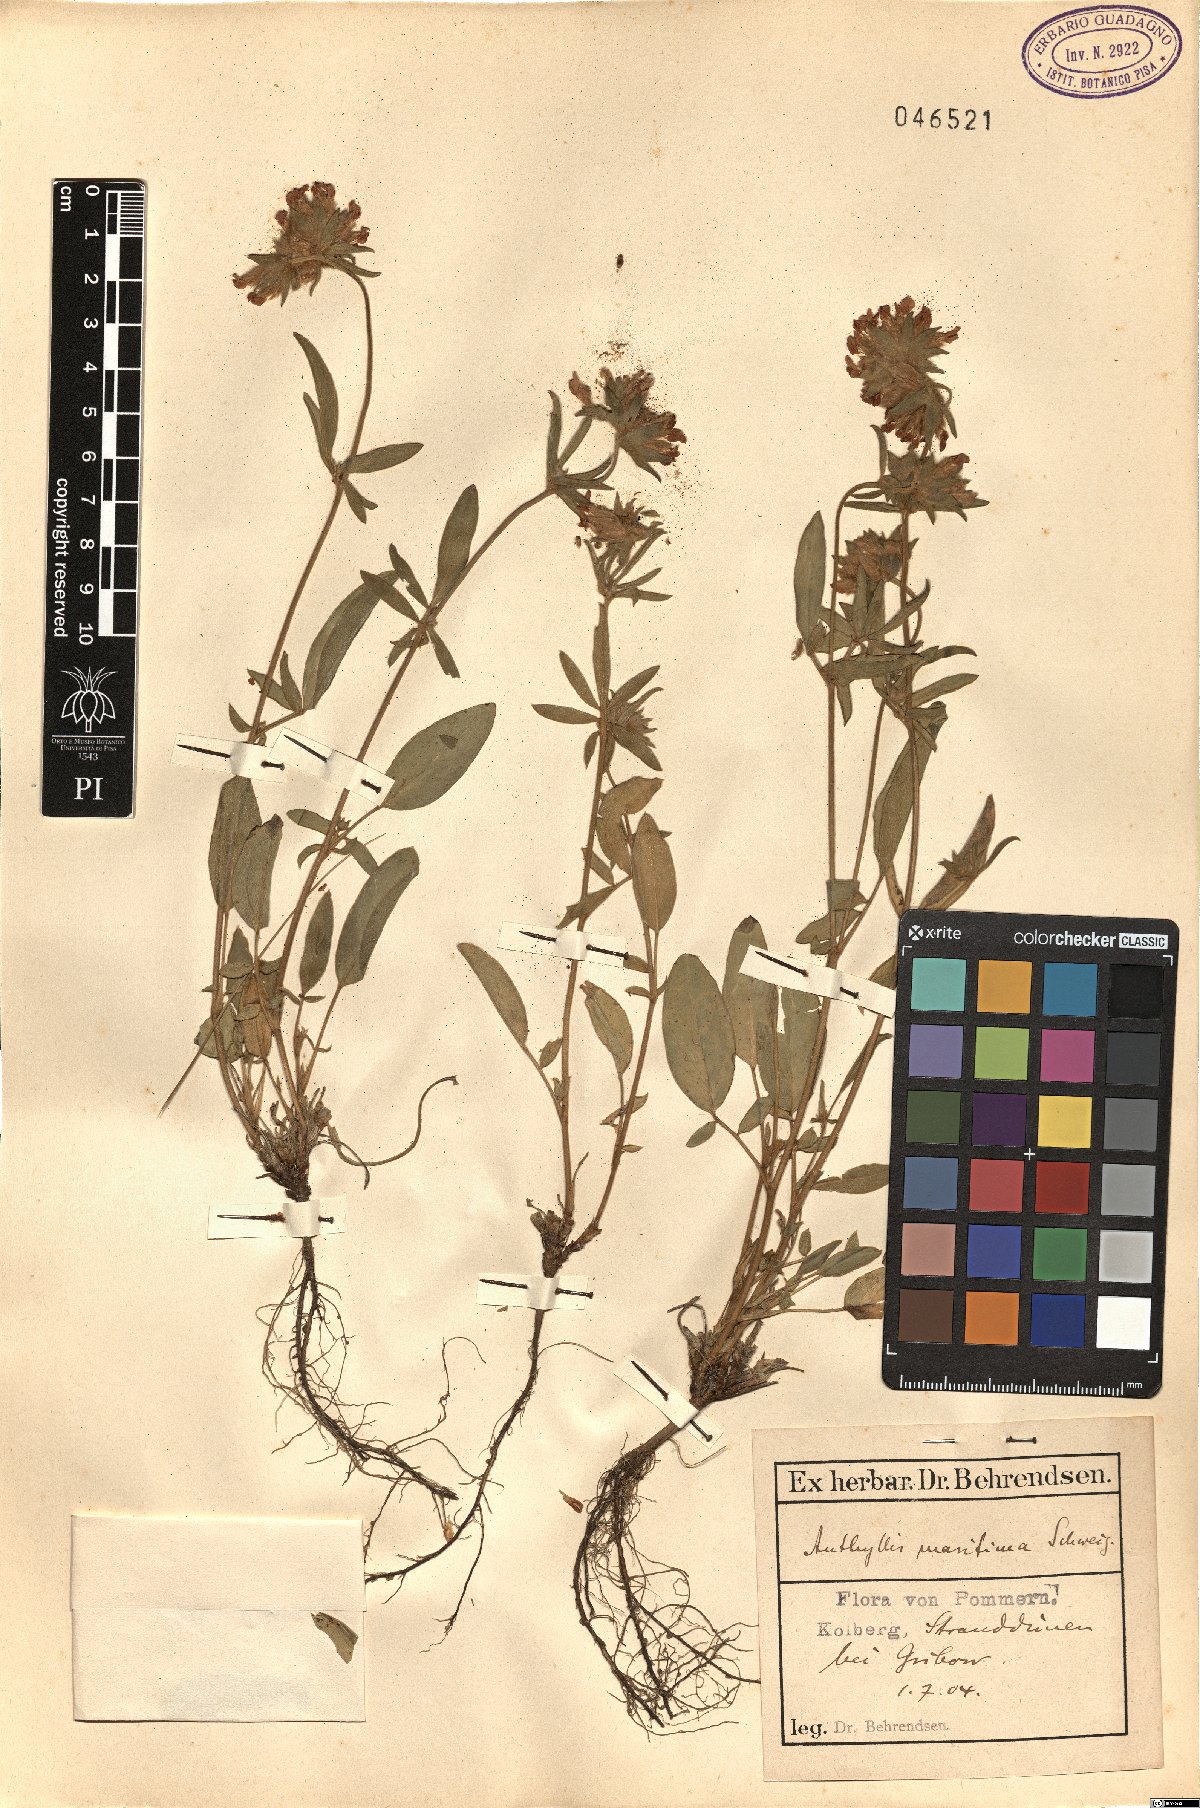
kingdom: Plantae
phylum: Tracheophyta
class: Magnoliopsida
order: Fabales
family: Fabaceae
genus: Anthyllis
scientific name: Anthyllis vulneraria
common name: Kidney vetch
